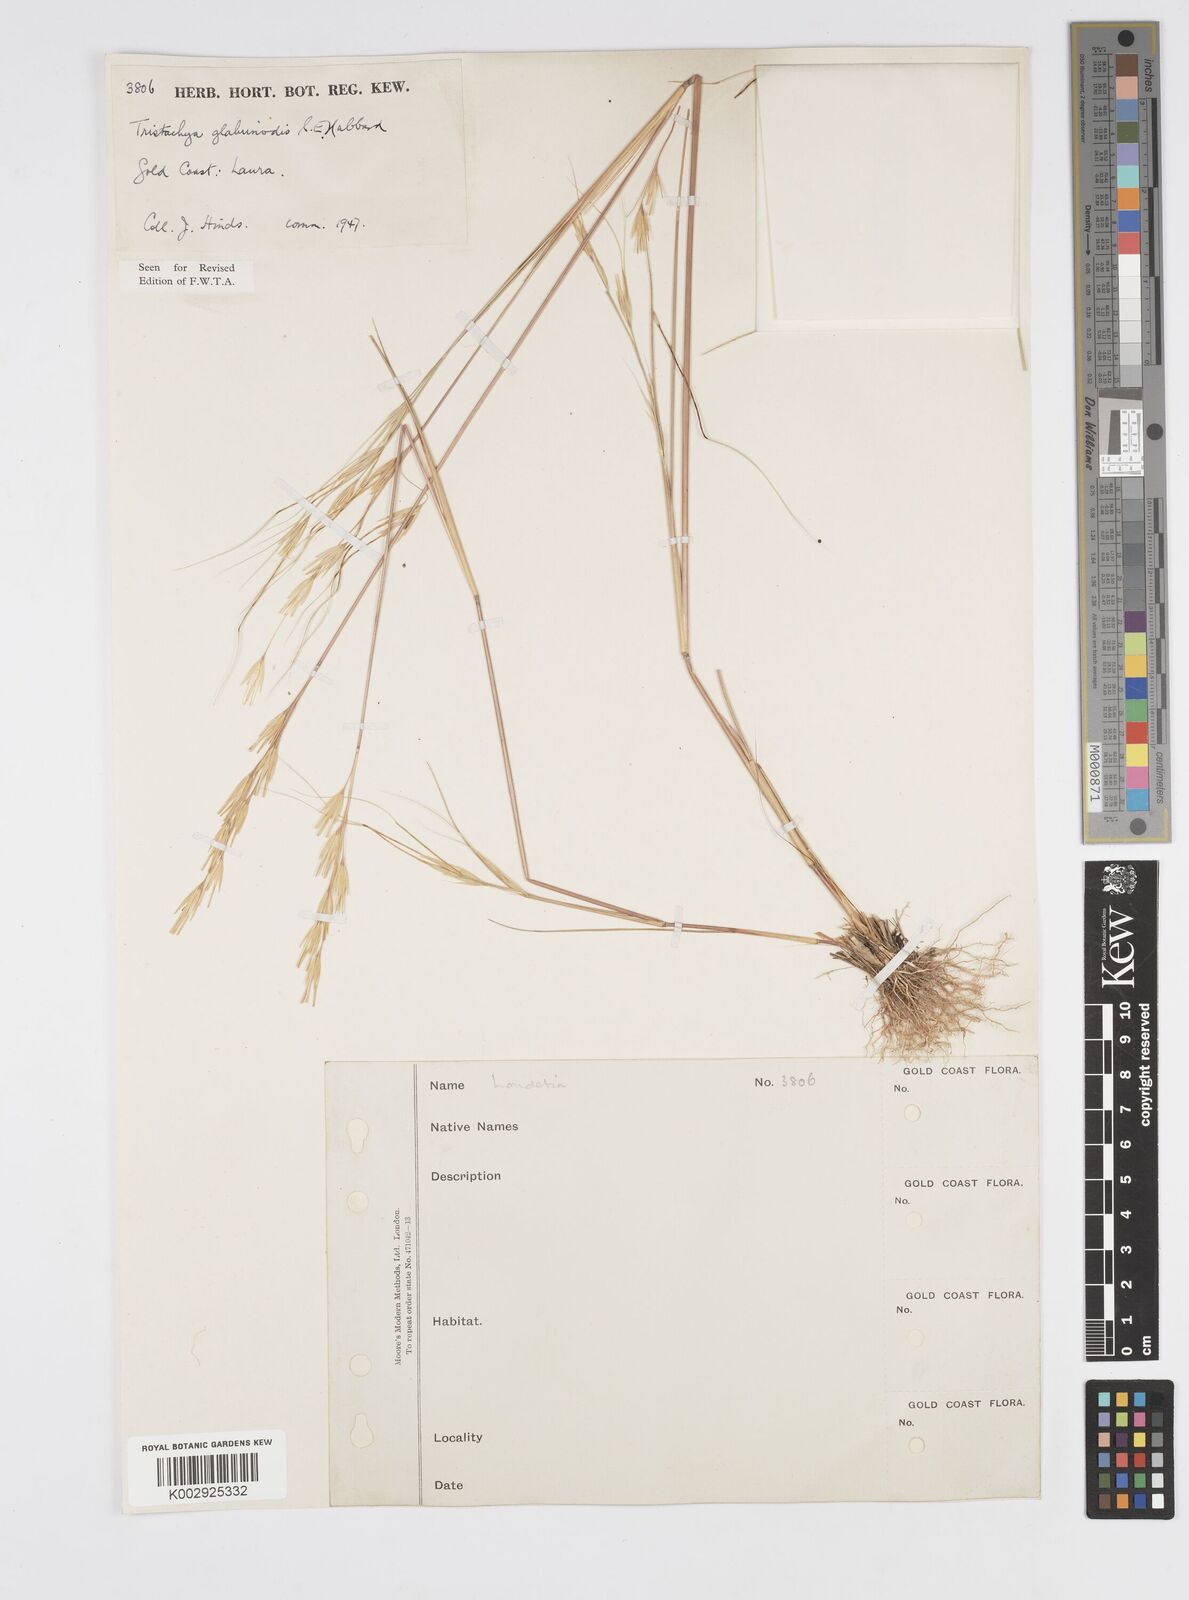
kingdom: Plantae
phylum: Tracheophyta
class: Liliopsida
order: Poales
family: Poaceae
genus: Loudetiopsis
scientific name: Loudetiopsis kerstingii
